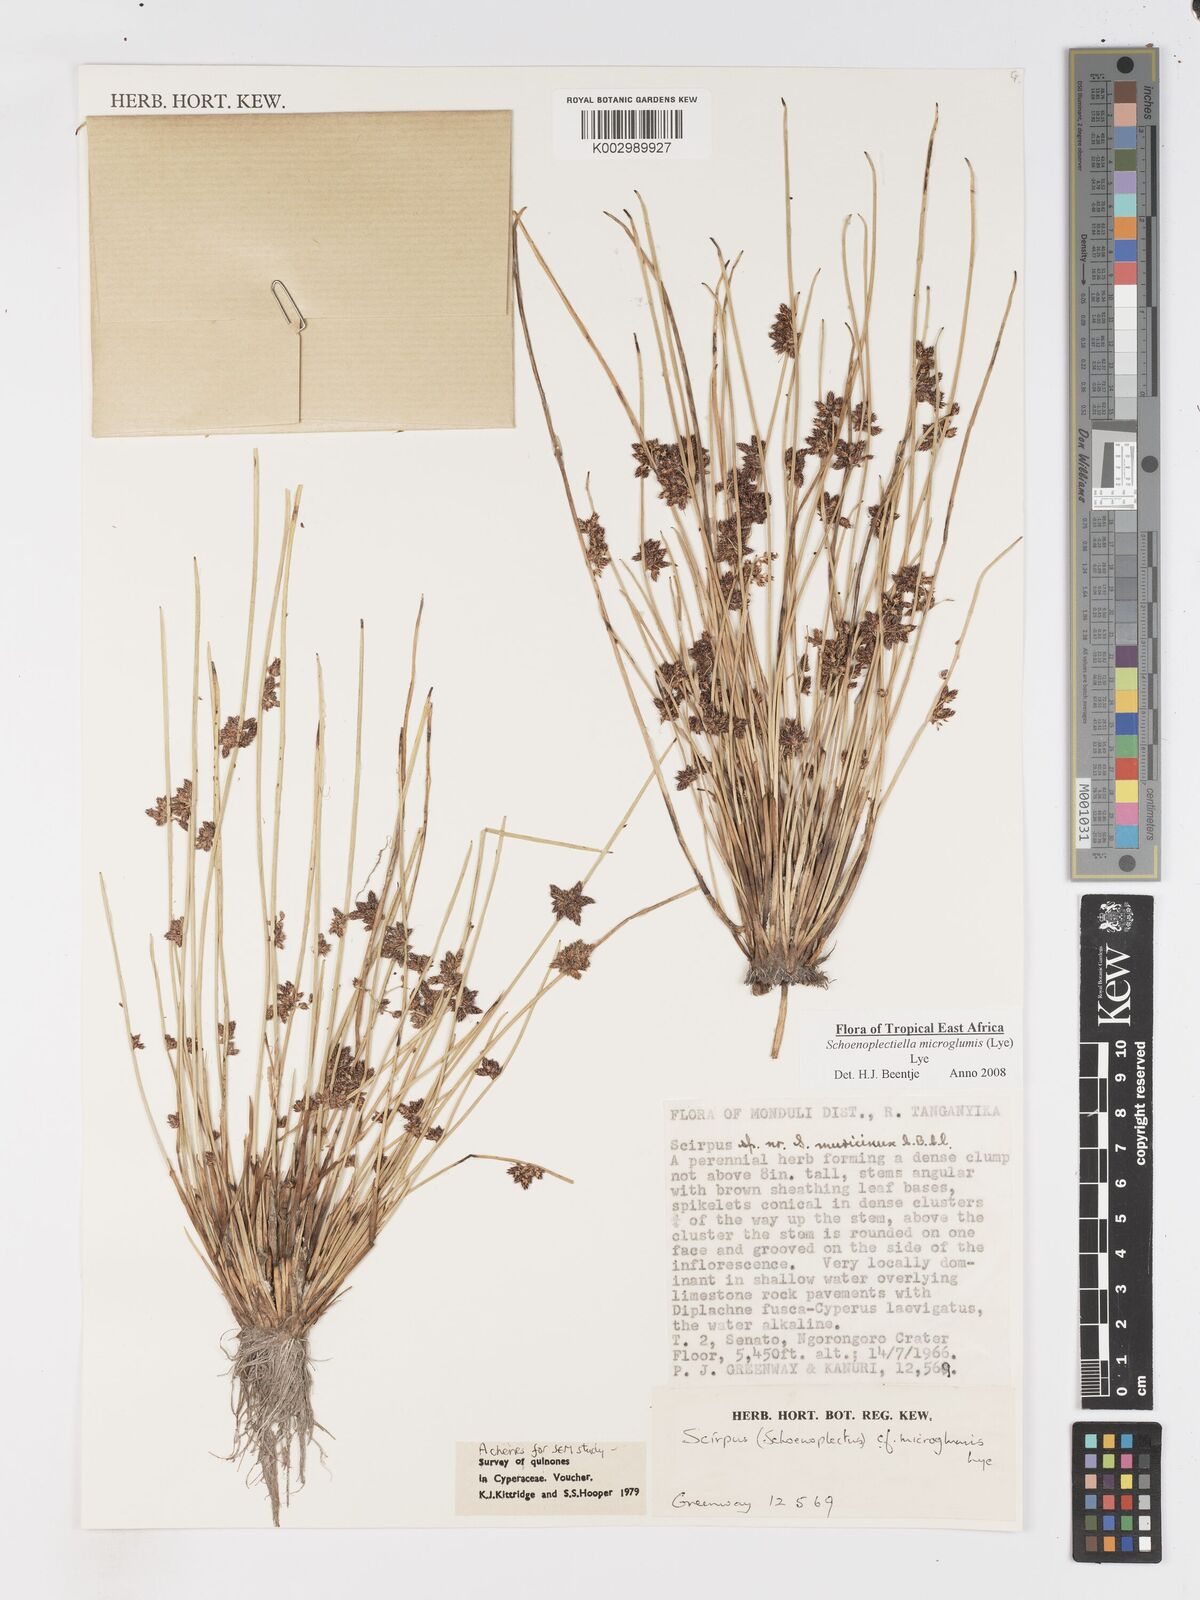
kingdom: Plantae
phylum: Tracheophyta
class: Liliopsida
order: Poales
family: Cyperaceae
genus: Schoenoplectiella
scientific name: Schoenoplectiella microglumis
